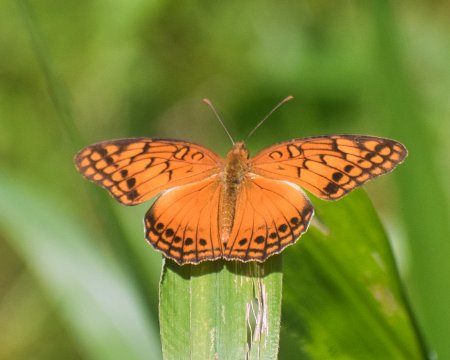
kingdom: Animalia
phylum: Arthropoda
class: Insecta
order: Lepidoptera
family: Nymphalidae
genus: Euptoieta
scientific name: Euptoieta hegesia
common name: Mexican Fritillary
